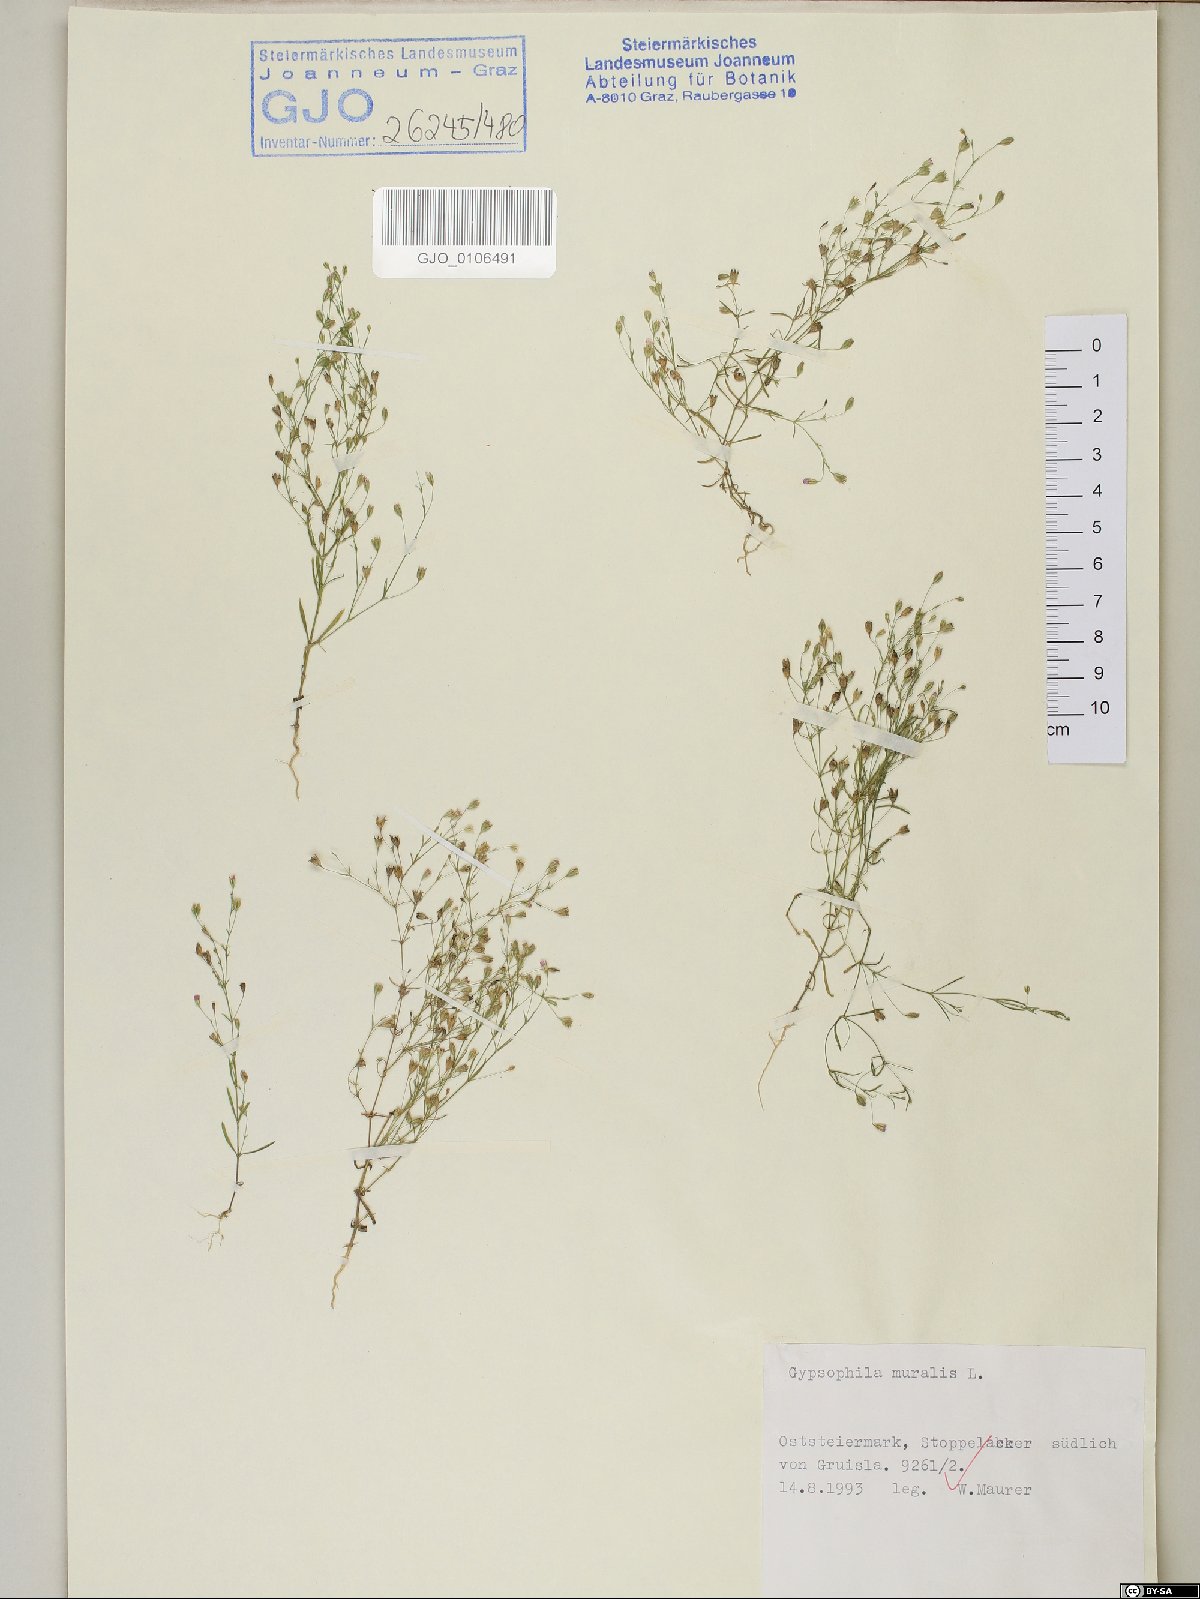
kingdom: Plantae
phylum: Tracheophyta
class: Magnoliopsida
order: Caryophyllales
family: Caryophyllaceae
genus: Psammophiliella
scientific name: Psammophiliella muralis
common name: Cushion baby's-breath
